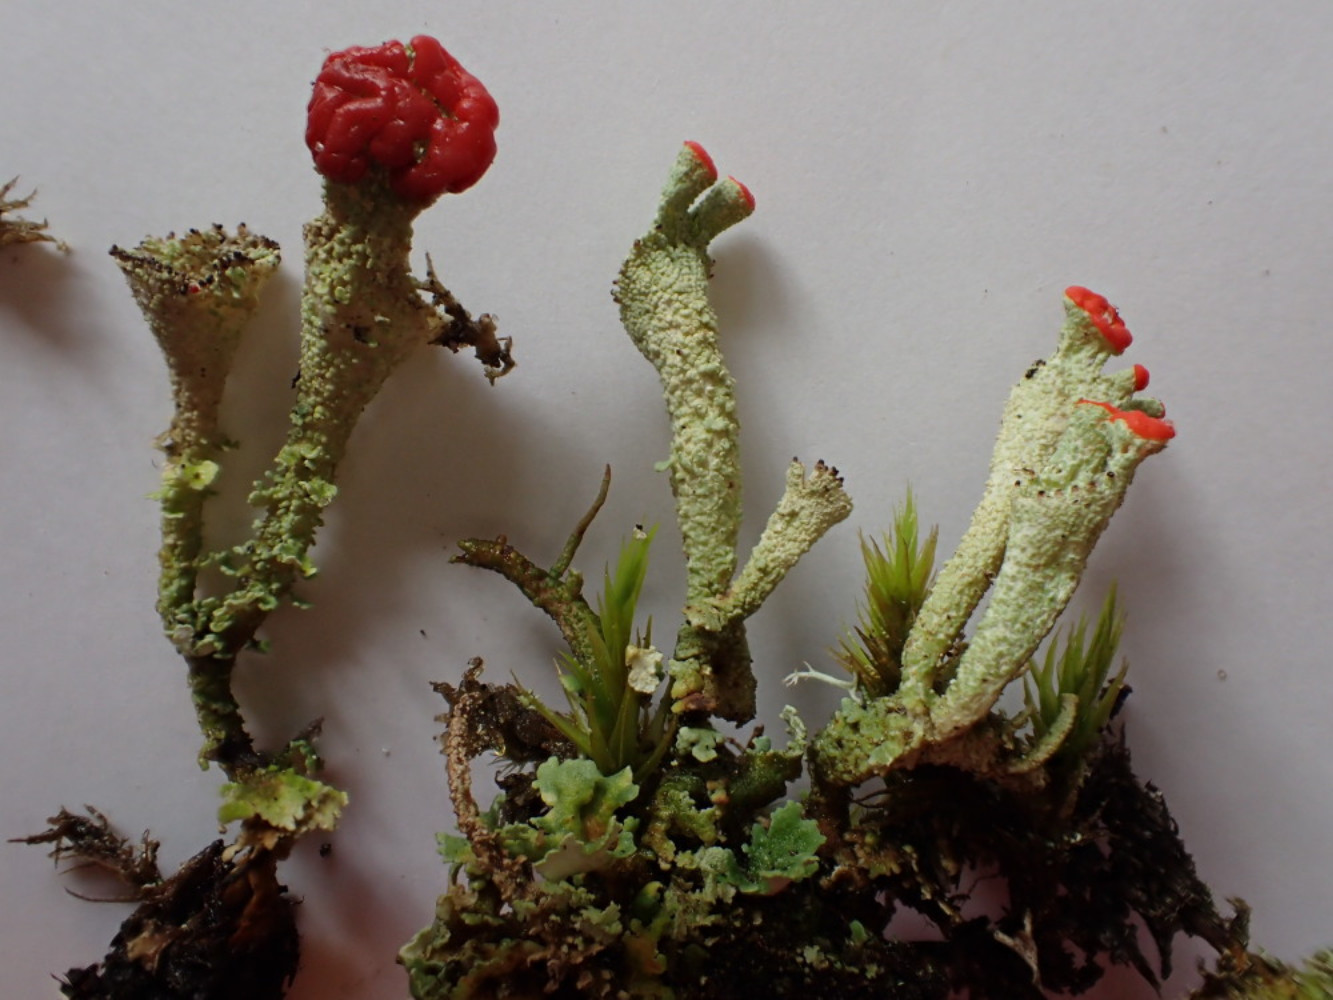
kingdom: Fungi
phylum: Ascomycota
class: Lecanoromycetes
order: Lecanorales
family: Cladoniaceae
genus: Cladonia
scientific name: Cladonia diversa
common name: rød bægerlav
